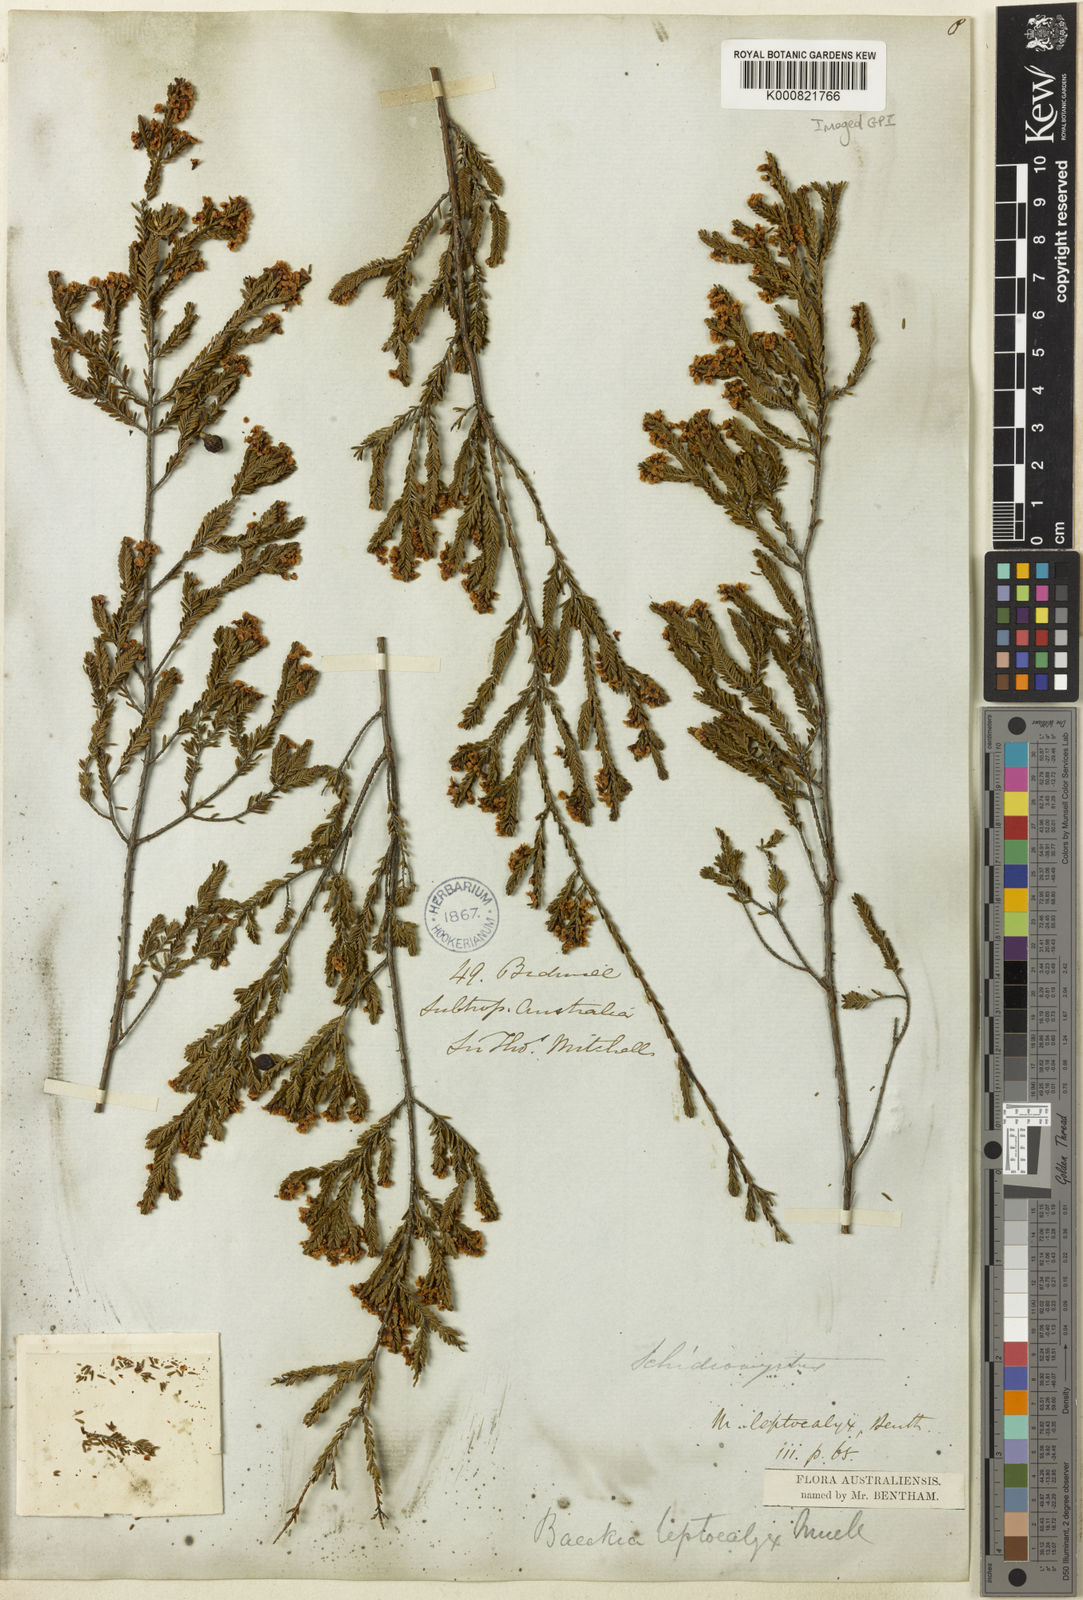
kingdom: Plantae
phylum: Tracheophyta
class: Magnoliopsida
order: Myrtales
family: Myrtaceae
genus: Micromyrtus
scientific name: Micromyrtus leptocalyx
